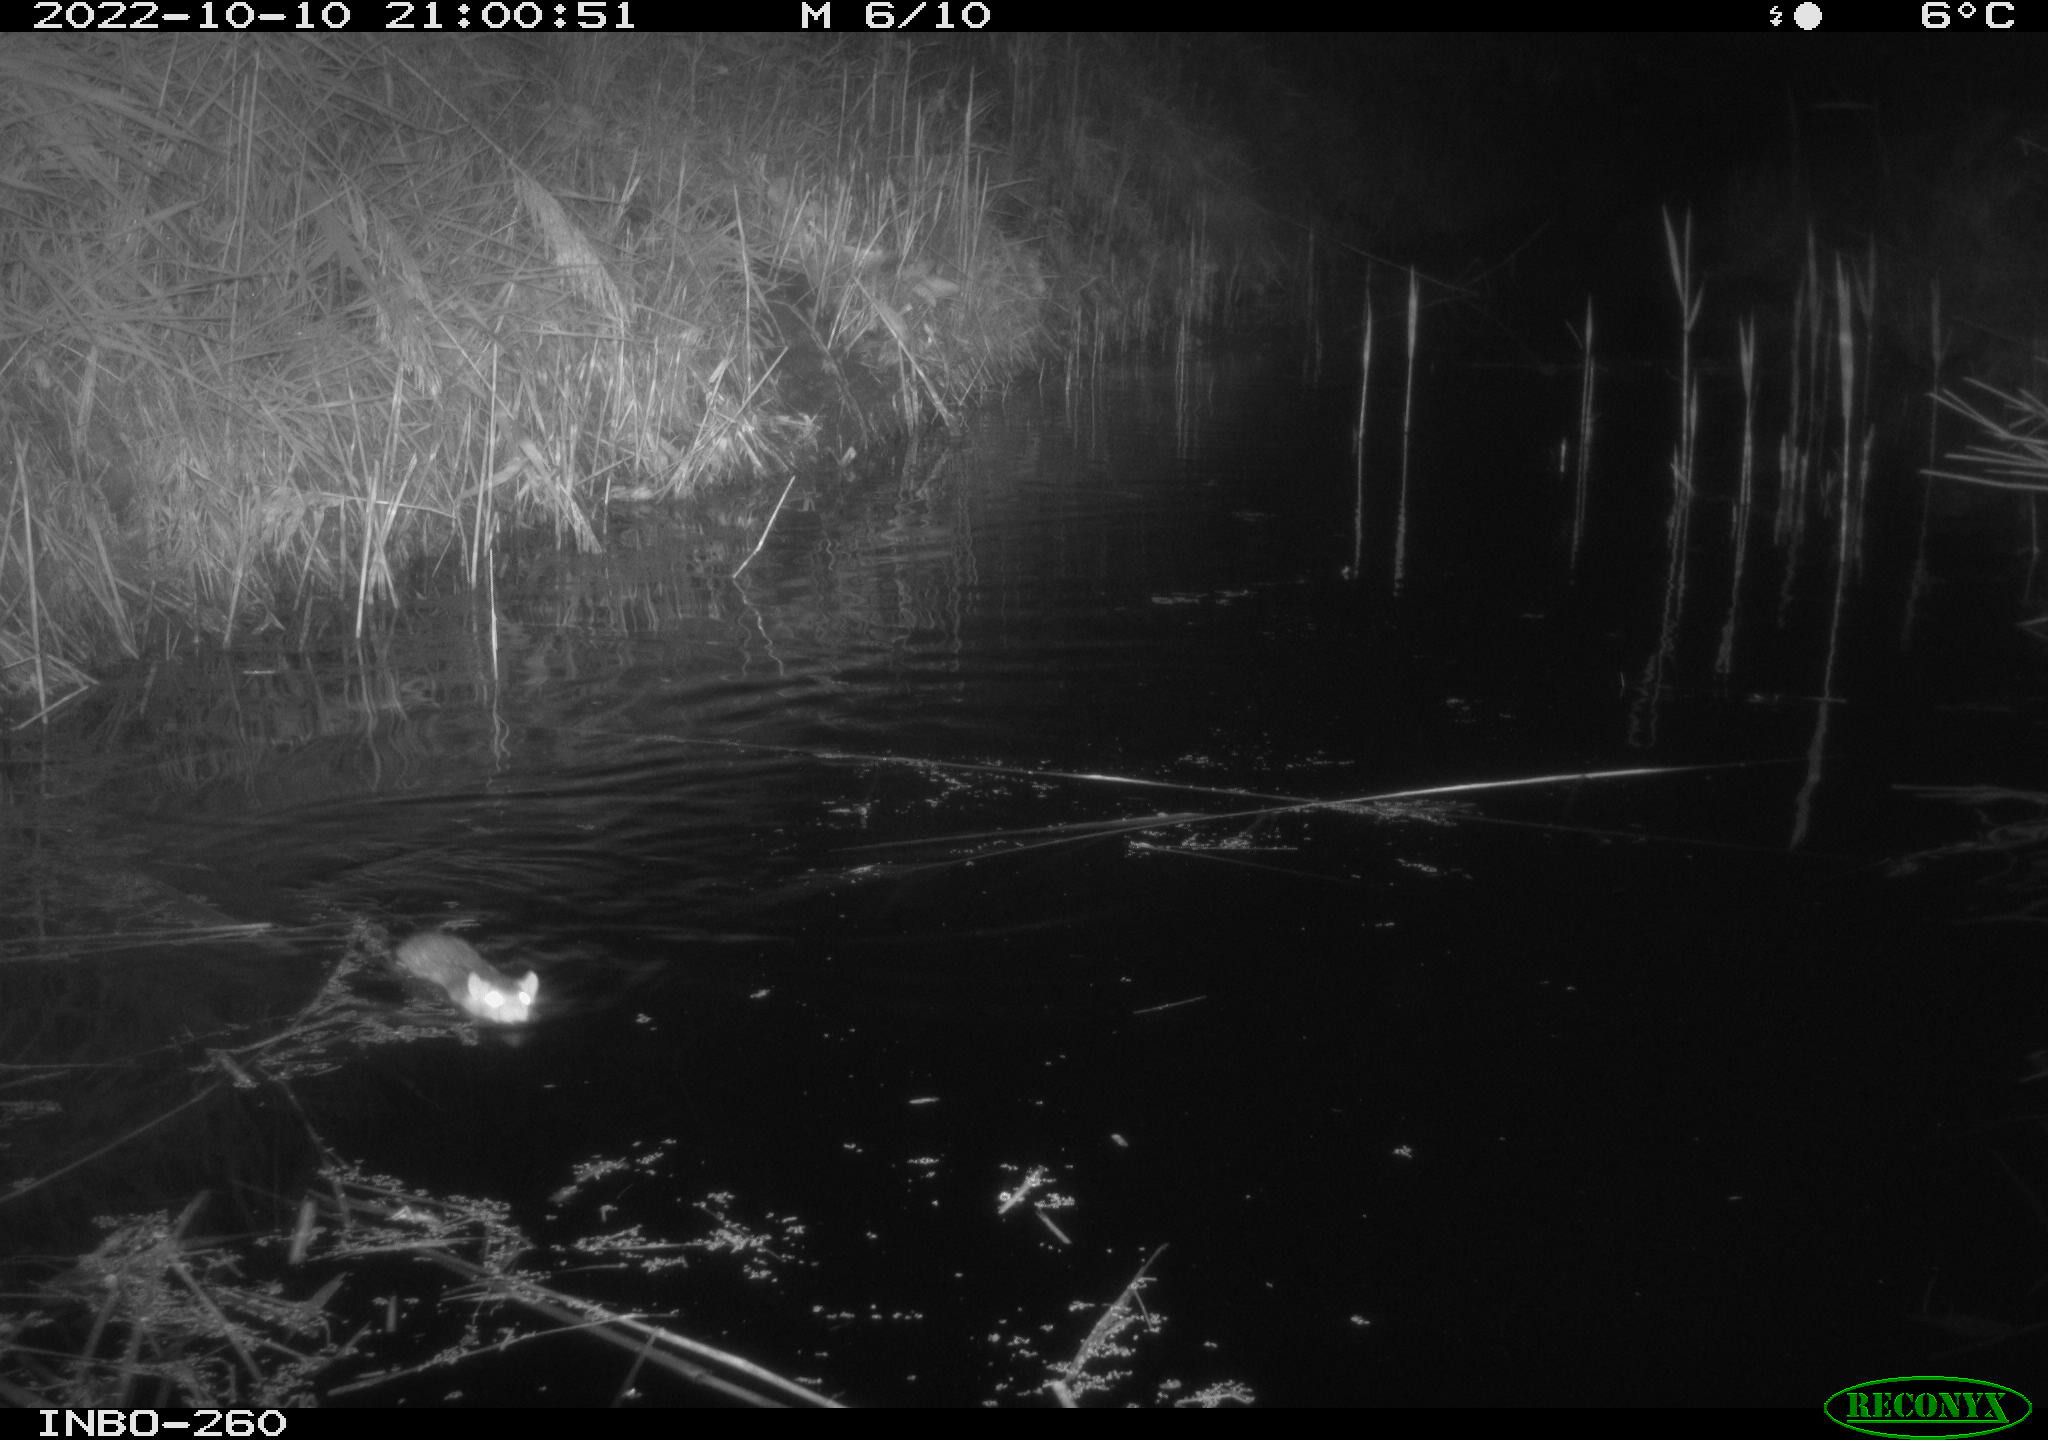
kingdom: Animalia
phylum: Chordata
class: Mammalia
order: Rodentia
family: Muridae
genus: Rattus
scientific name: Rattus norvegicus
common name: Brown rat
